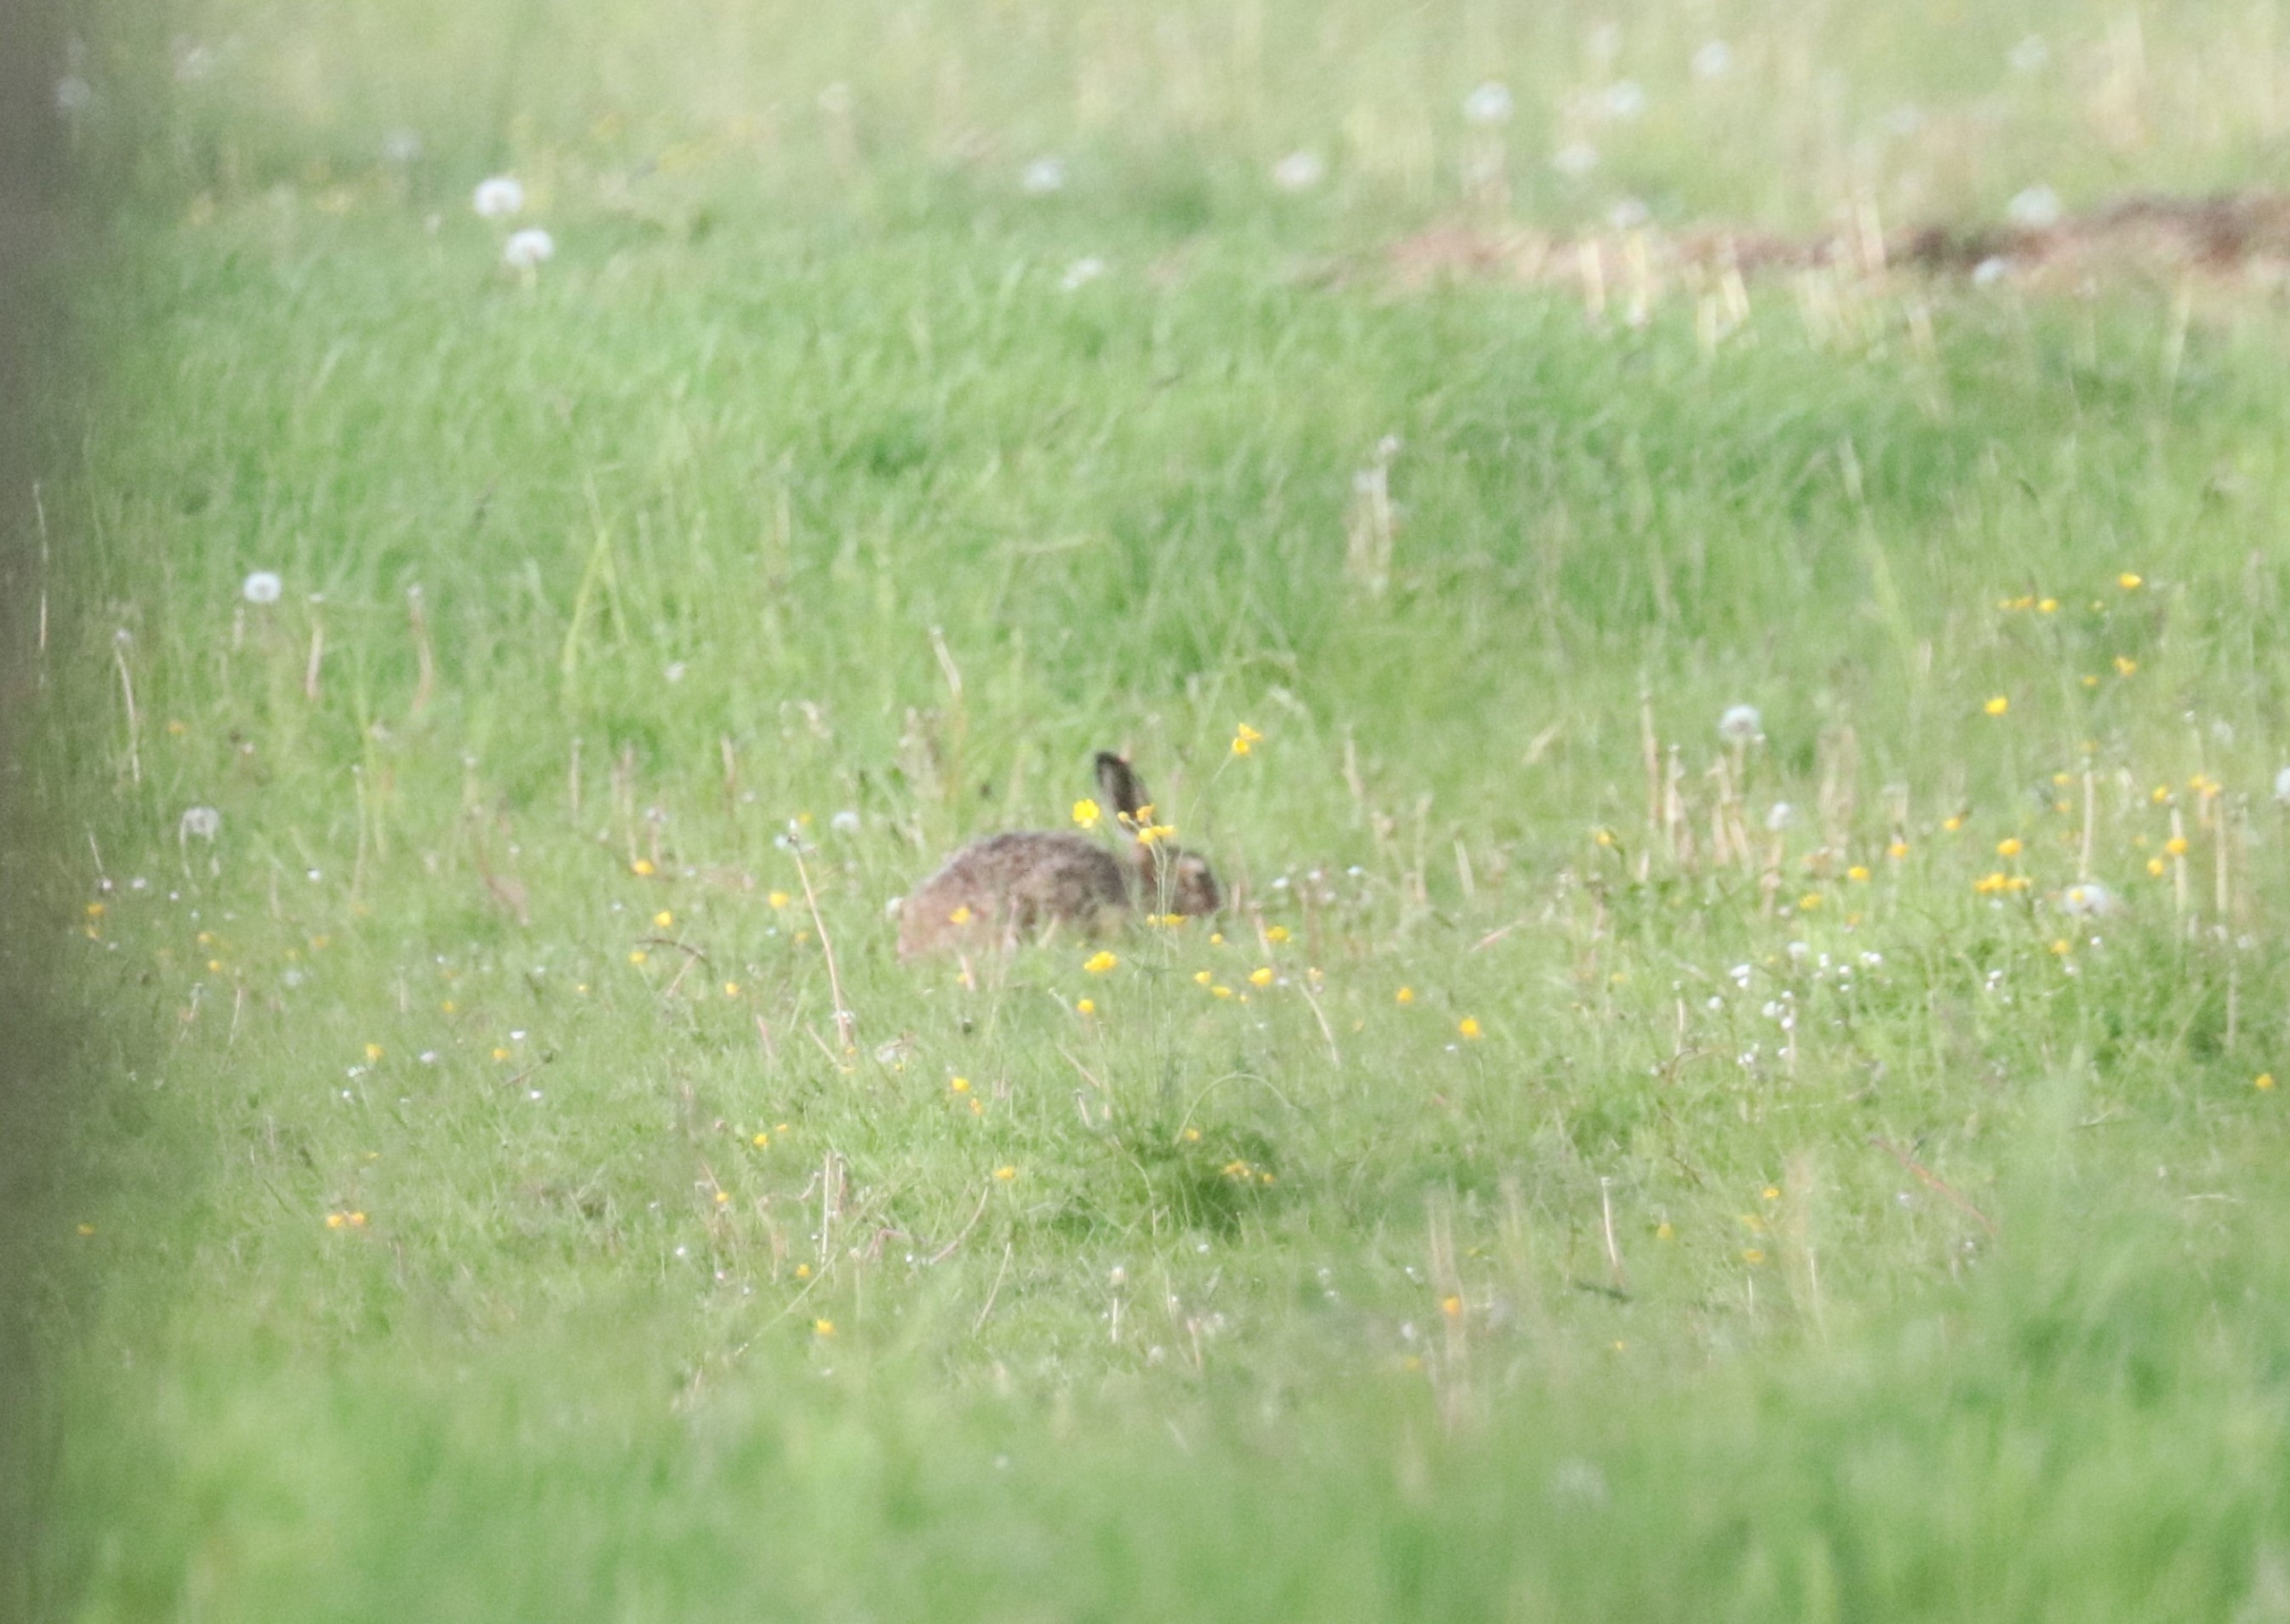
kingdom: Animalia
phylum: Chordata
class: Mammalia
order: Lagomorpha
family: Leporidae
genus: Lepus
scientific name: Lepus europaeus
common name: Hare
